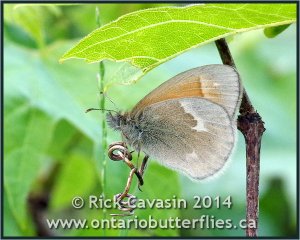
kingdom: Animalia
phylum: Arthropoda
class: Insecta
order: Lepidoptera
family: Nymphalidae
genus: Coenonympha
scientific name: Coenonympha tullia
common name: Large Heath
